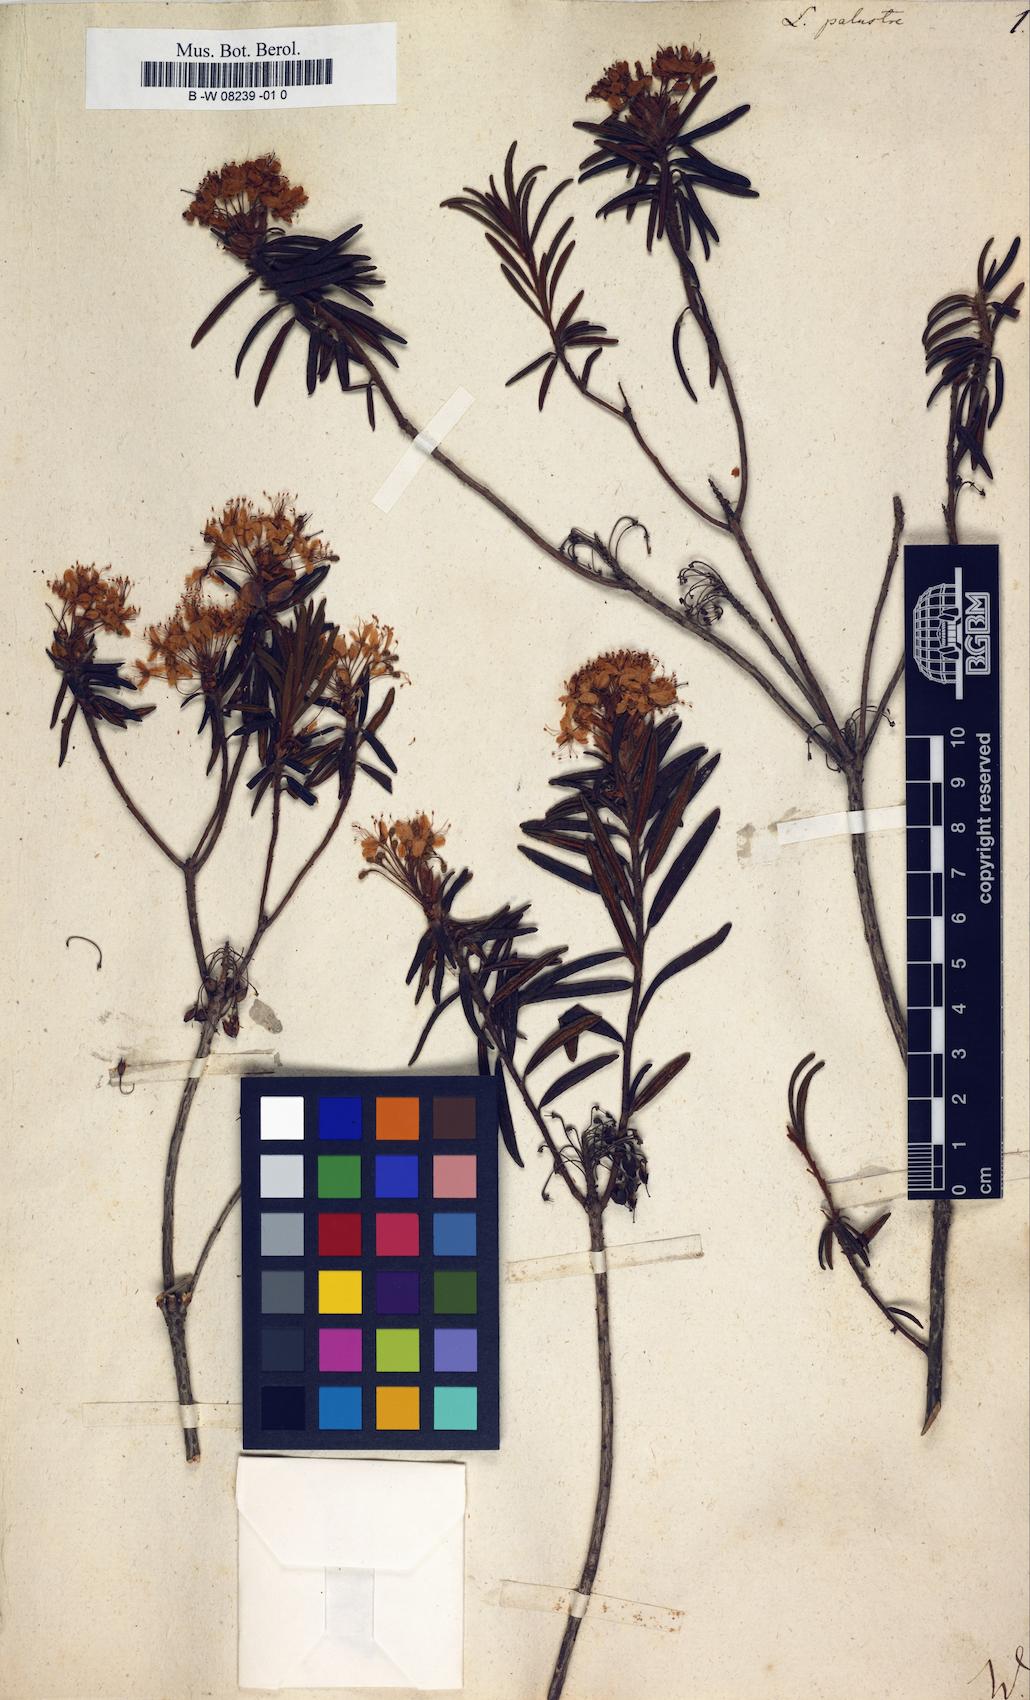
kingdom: Plantae
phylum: Tracheophyta
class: Magnoliopsida
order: Ericales
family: Ericaceae
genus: Rhododendron
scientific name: Rhododendron tomentosum
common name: Marsh labrador tea
